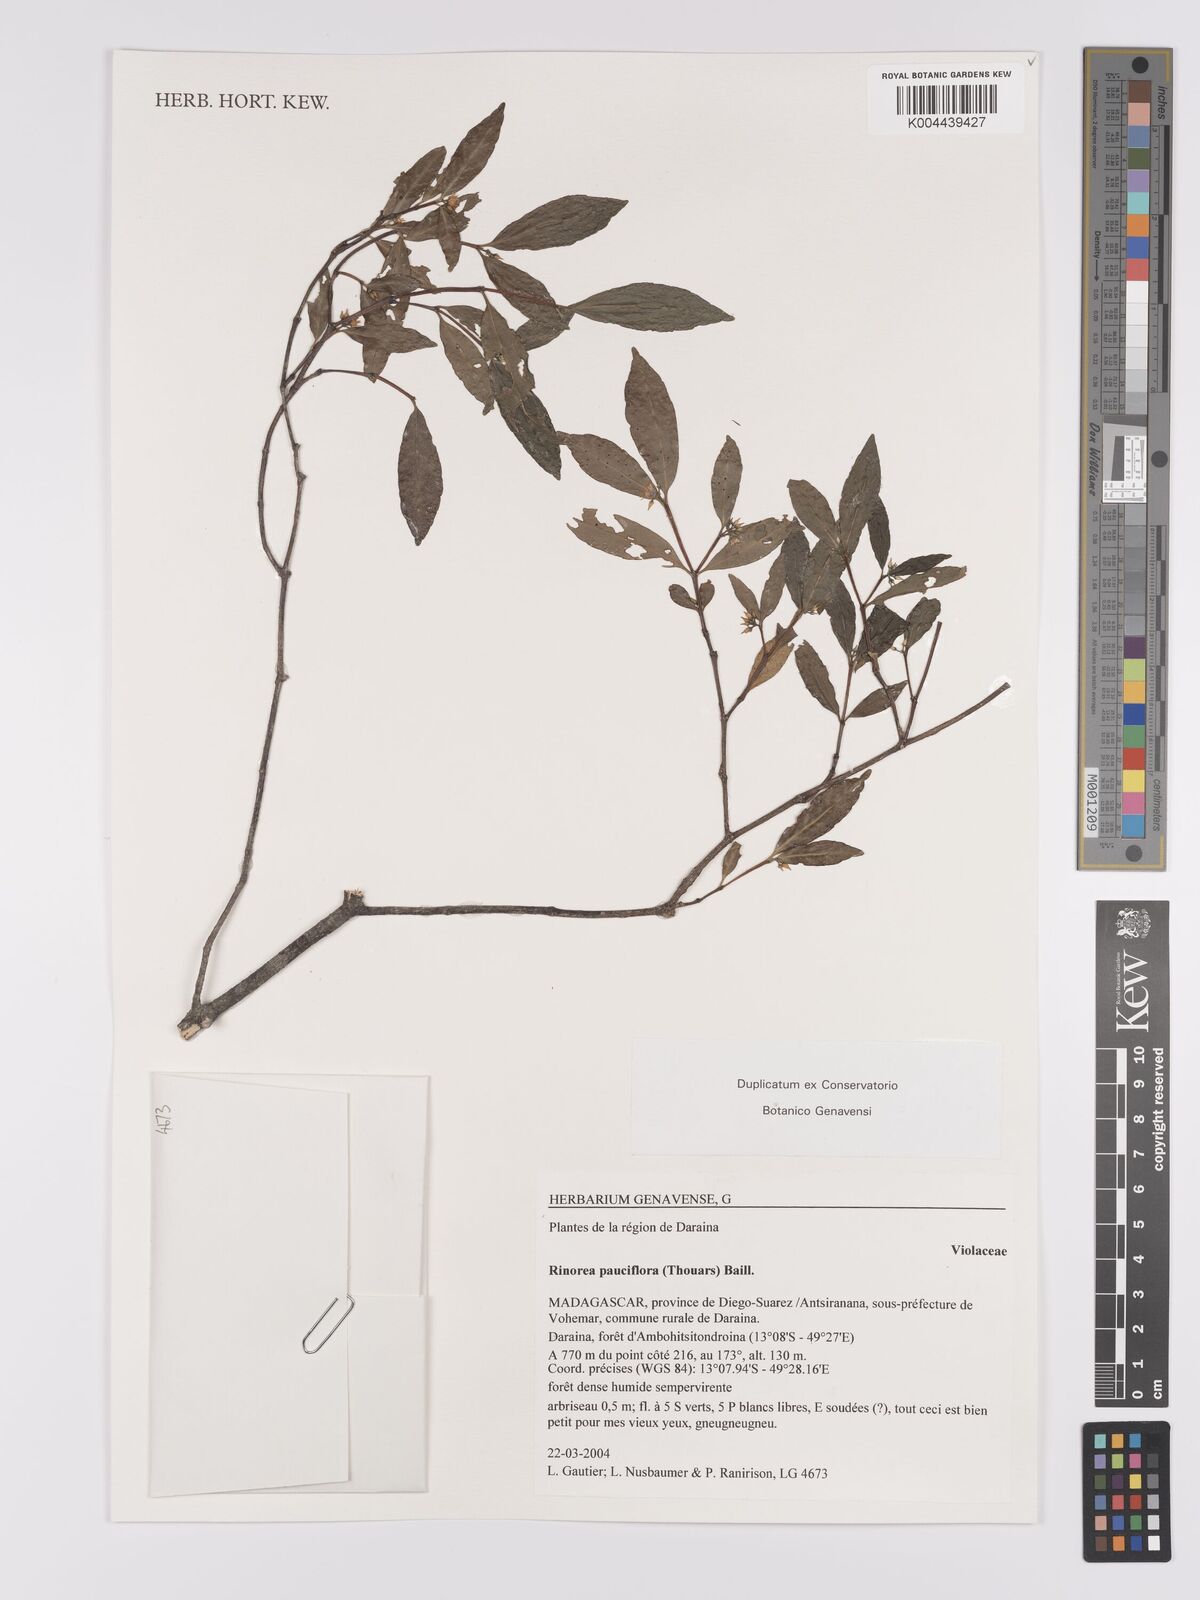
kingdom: Plantae
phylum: Tracheophyta
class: Magnoliopsida
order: Malpighiales
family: Violaceae
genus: Rinorea
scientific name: Rinorea pauciflora
